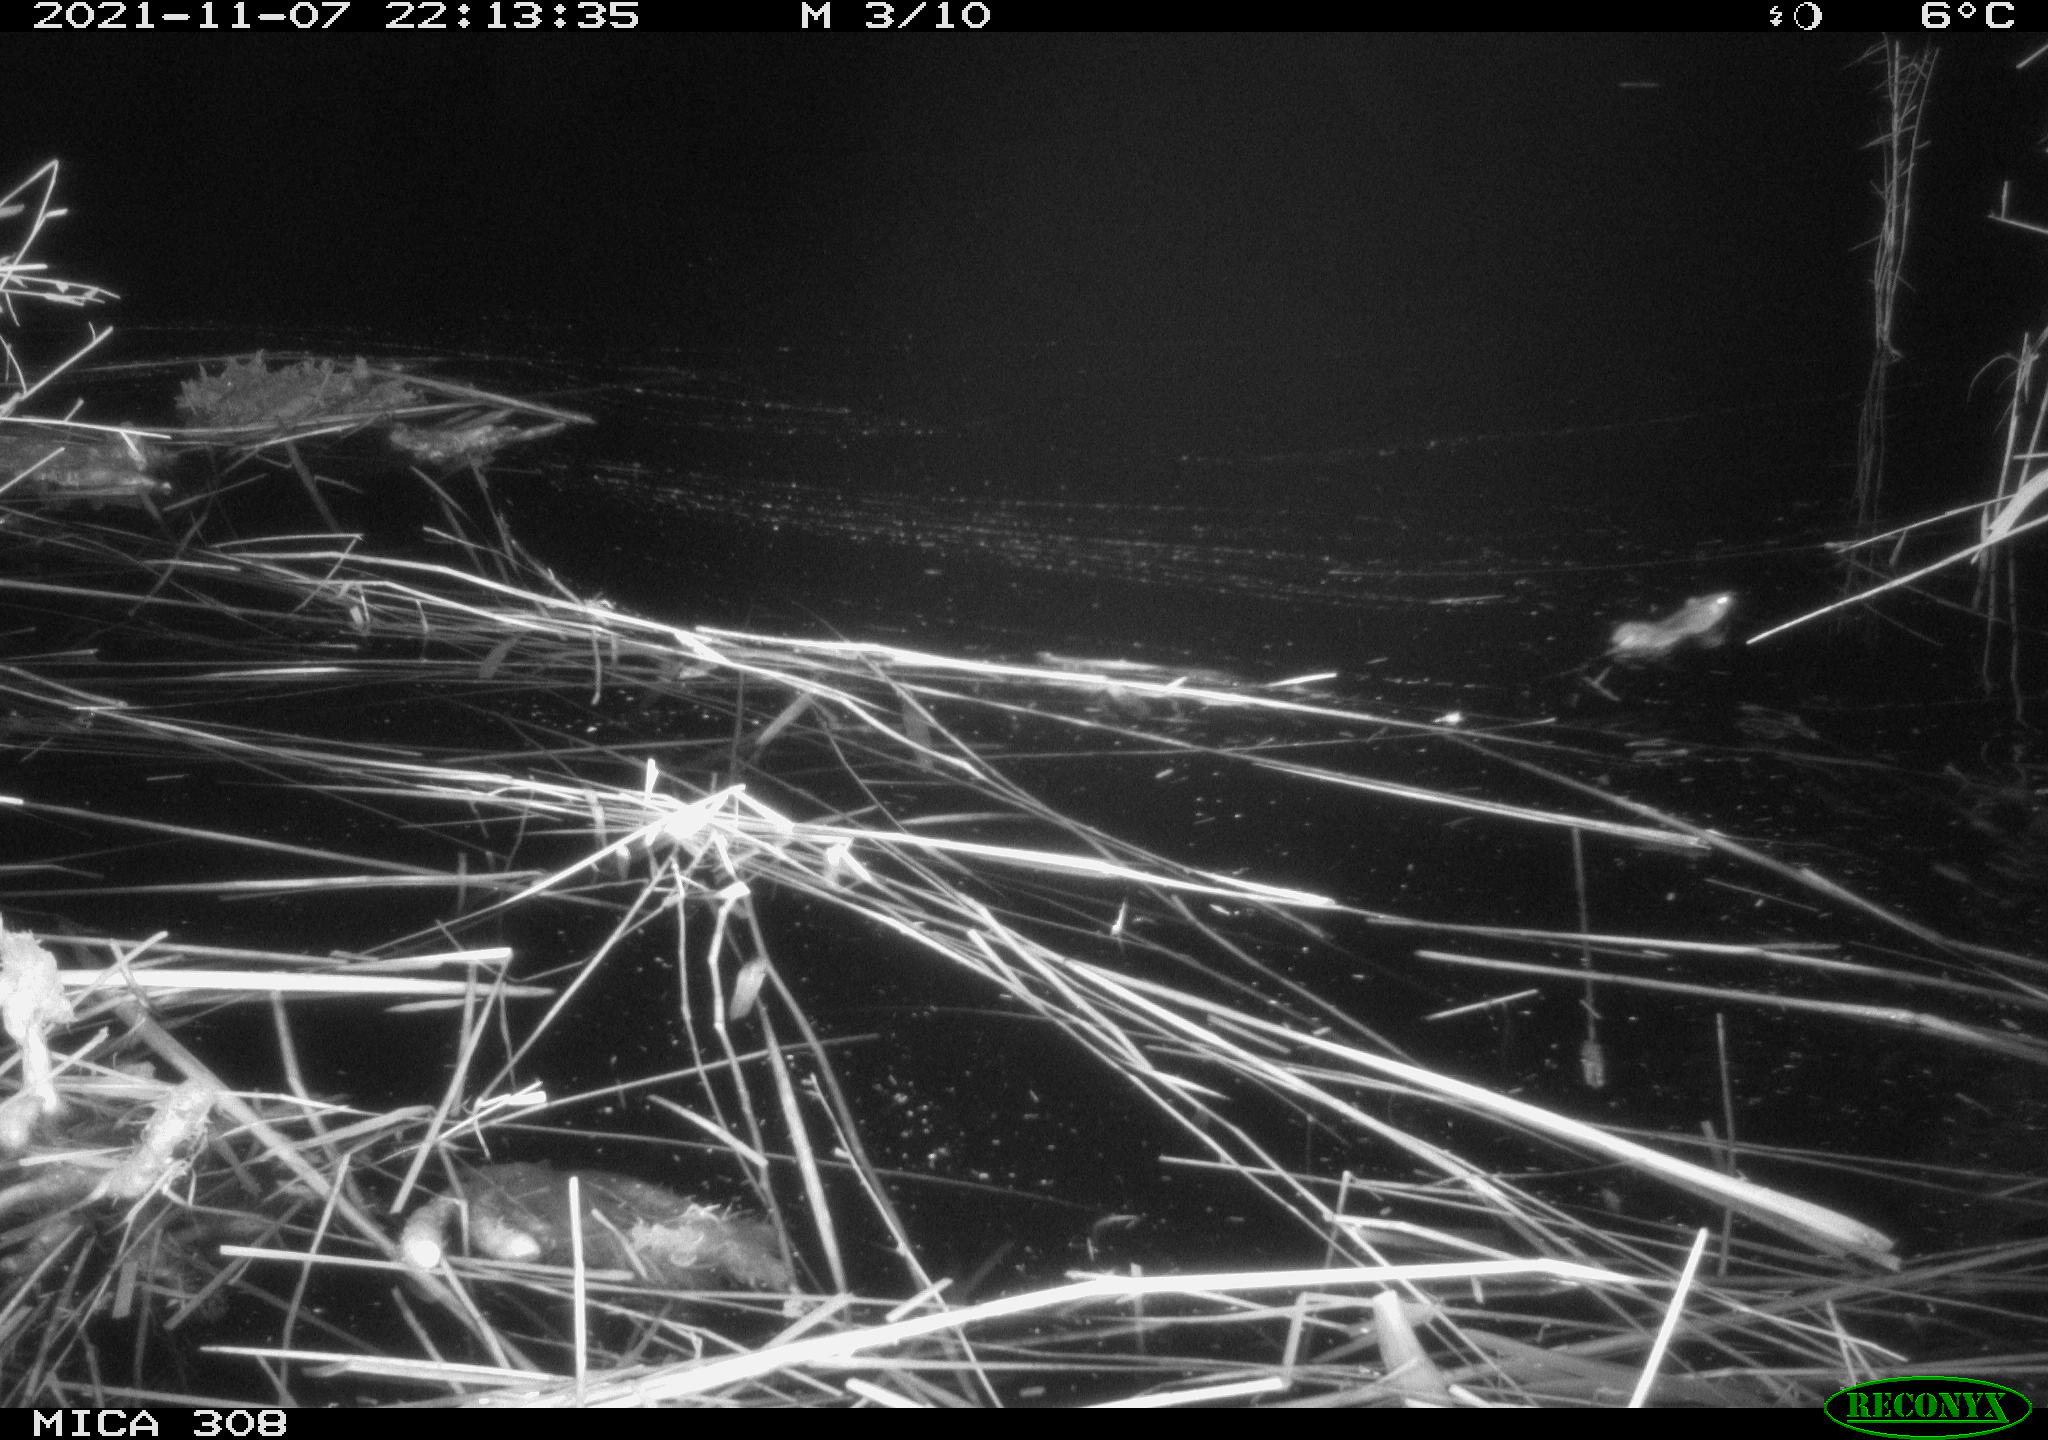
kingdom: Animalia
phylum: Chordata
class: Mammalia
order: Rodentia
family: Muridae
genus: Rattus
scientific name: Rattus norvegicus
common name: Brown rat
